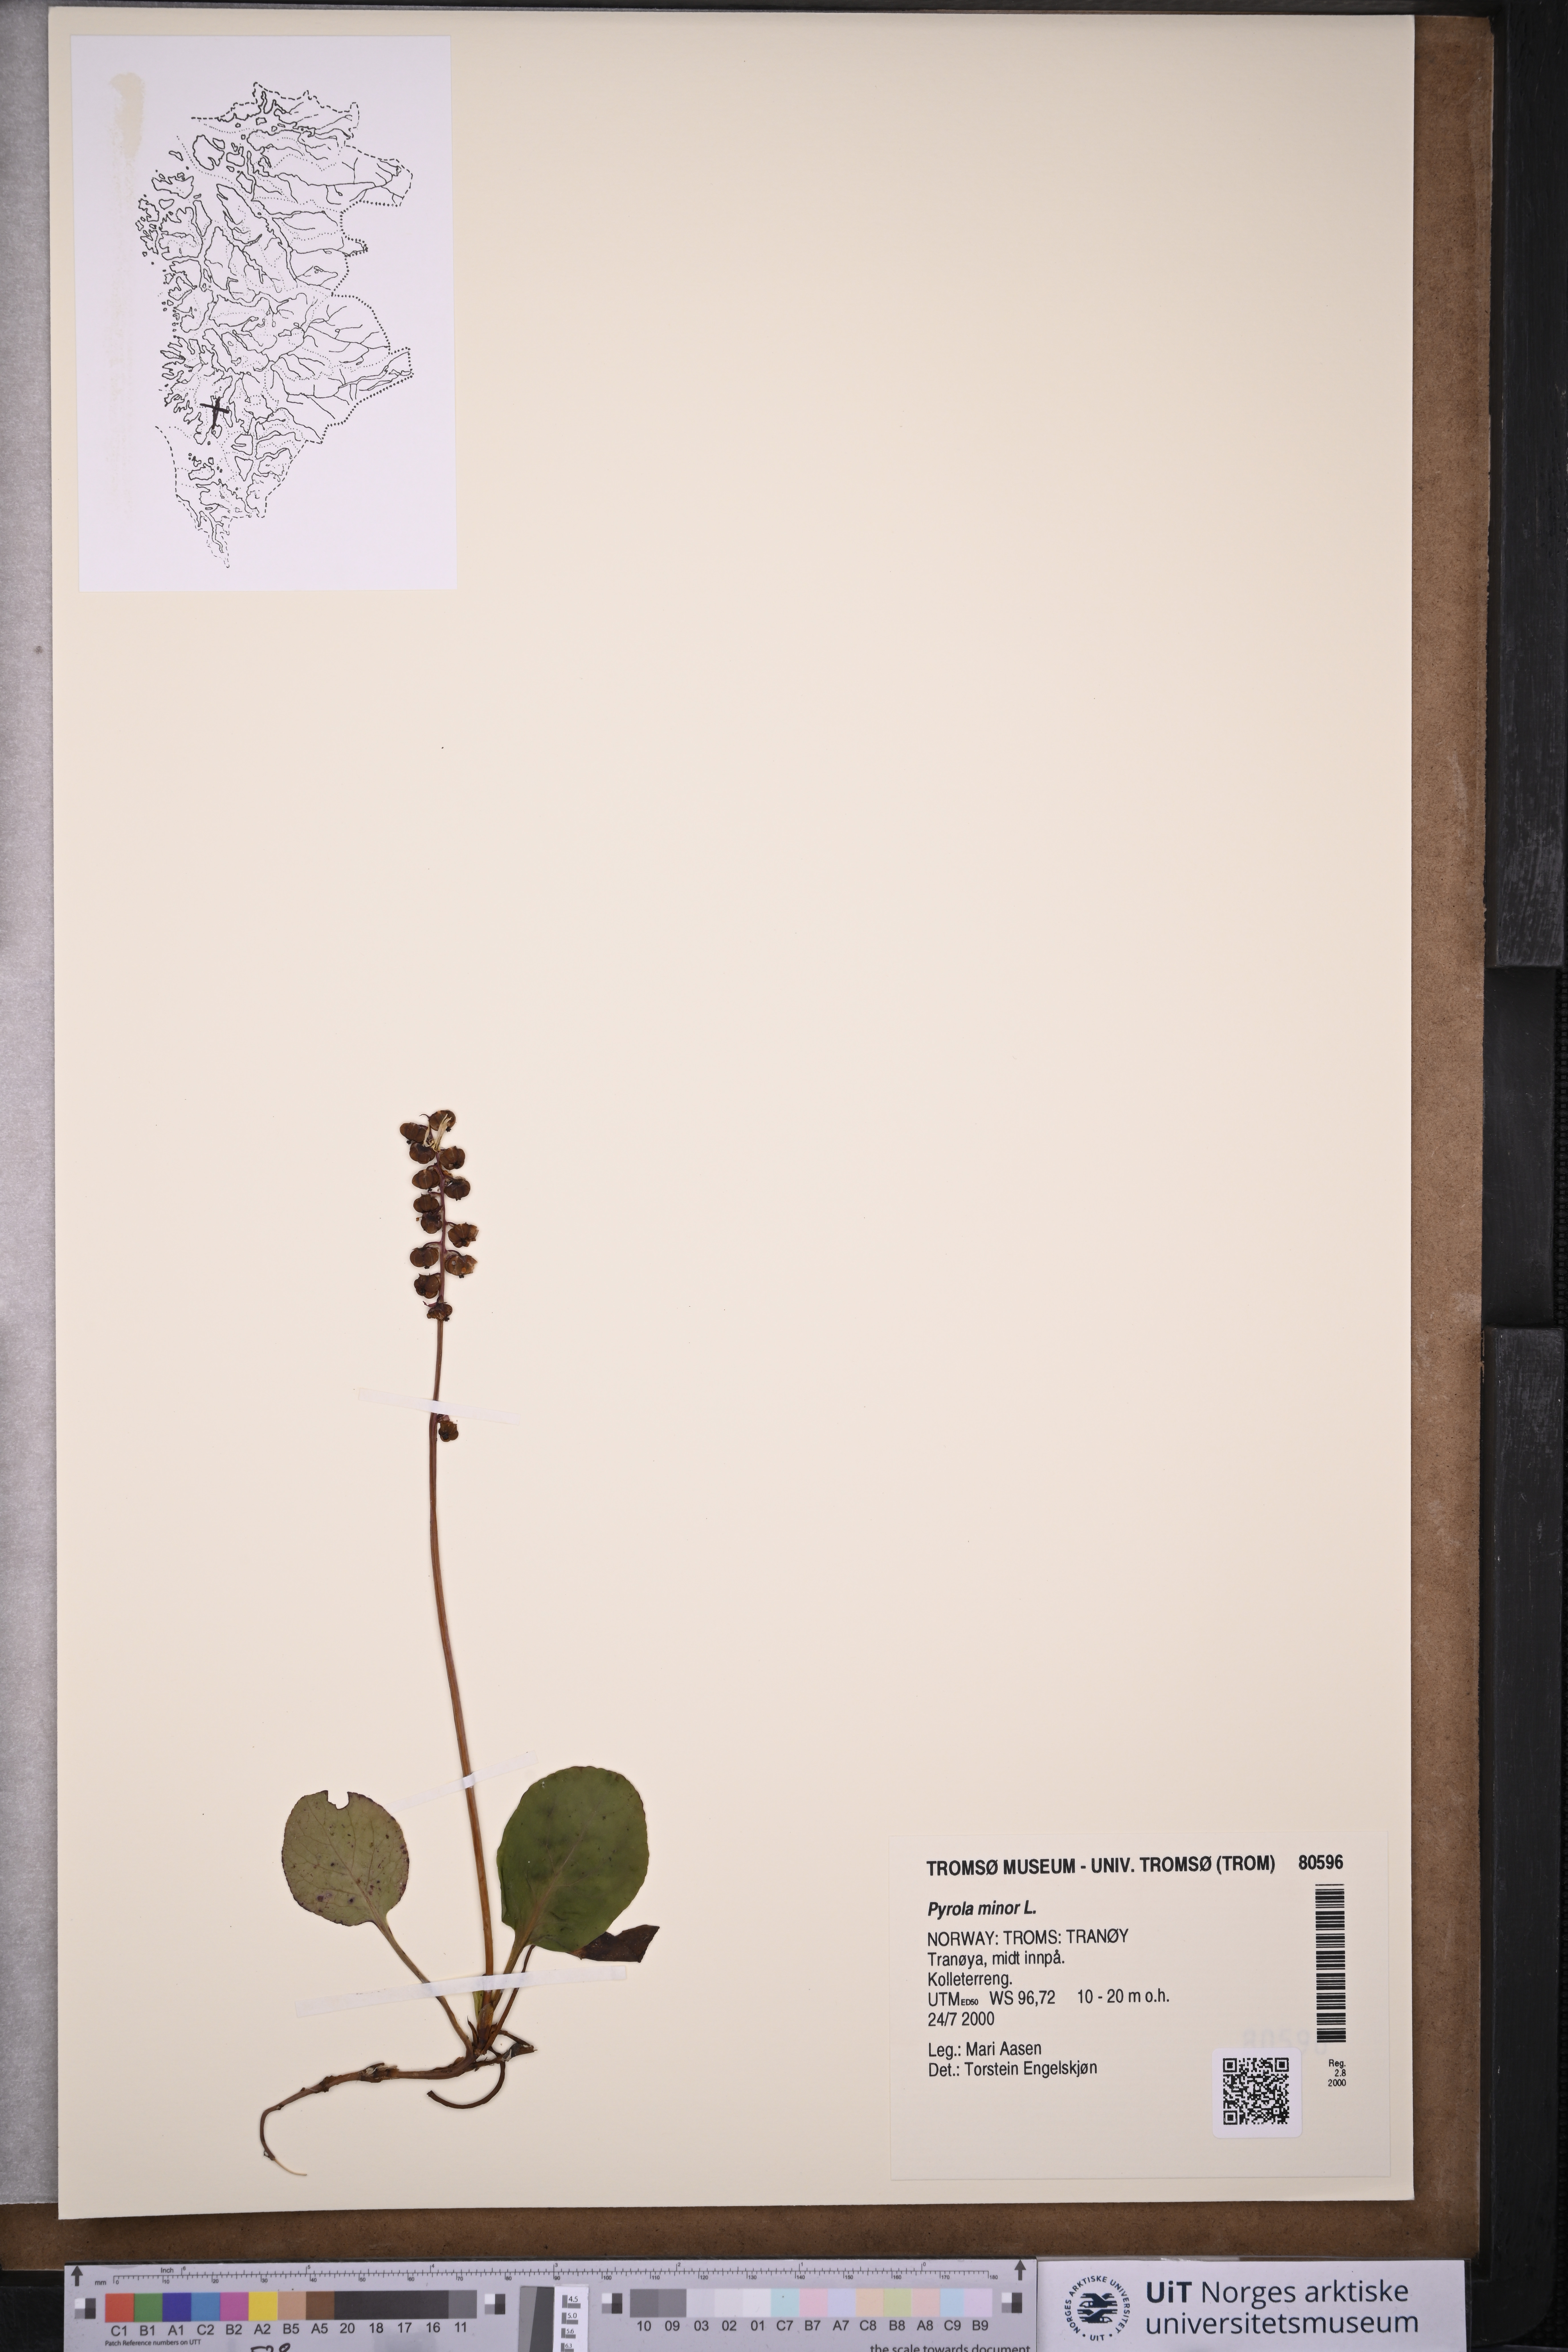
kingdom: Plantae
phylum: Tracheophyta
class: Magnoliopsida
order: Ericales
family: Ericaceae
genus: Pyrola
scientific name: Pyrola minor
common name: Common wintergreen
